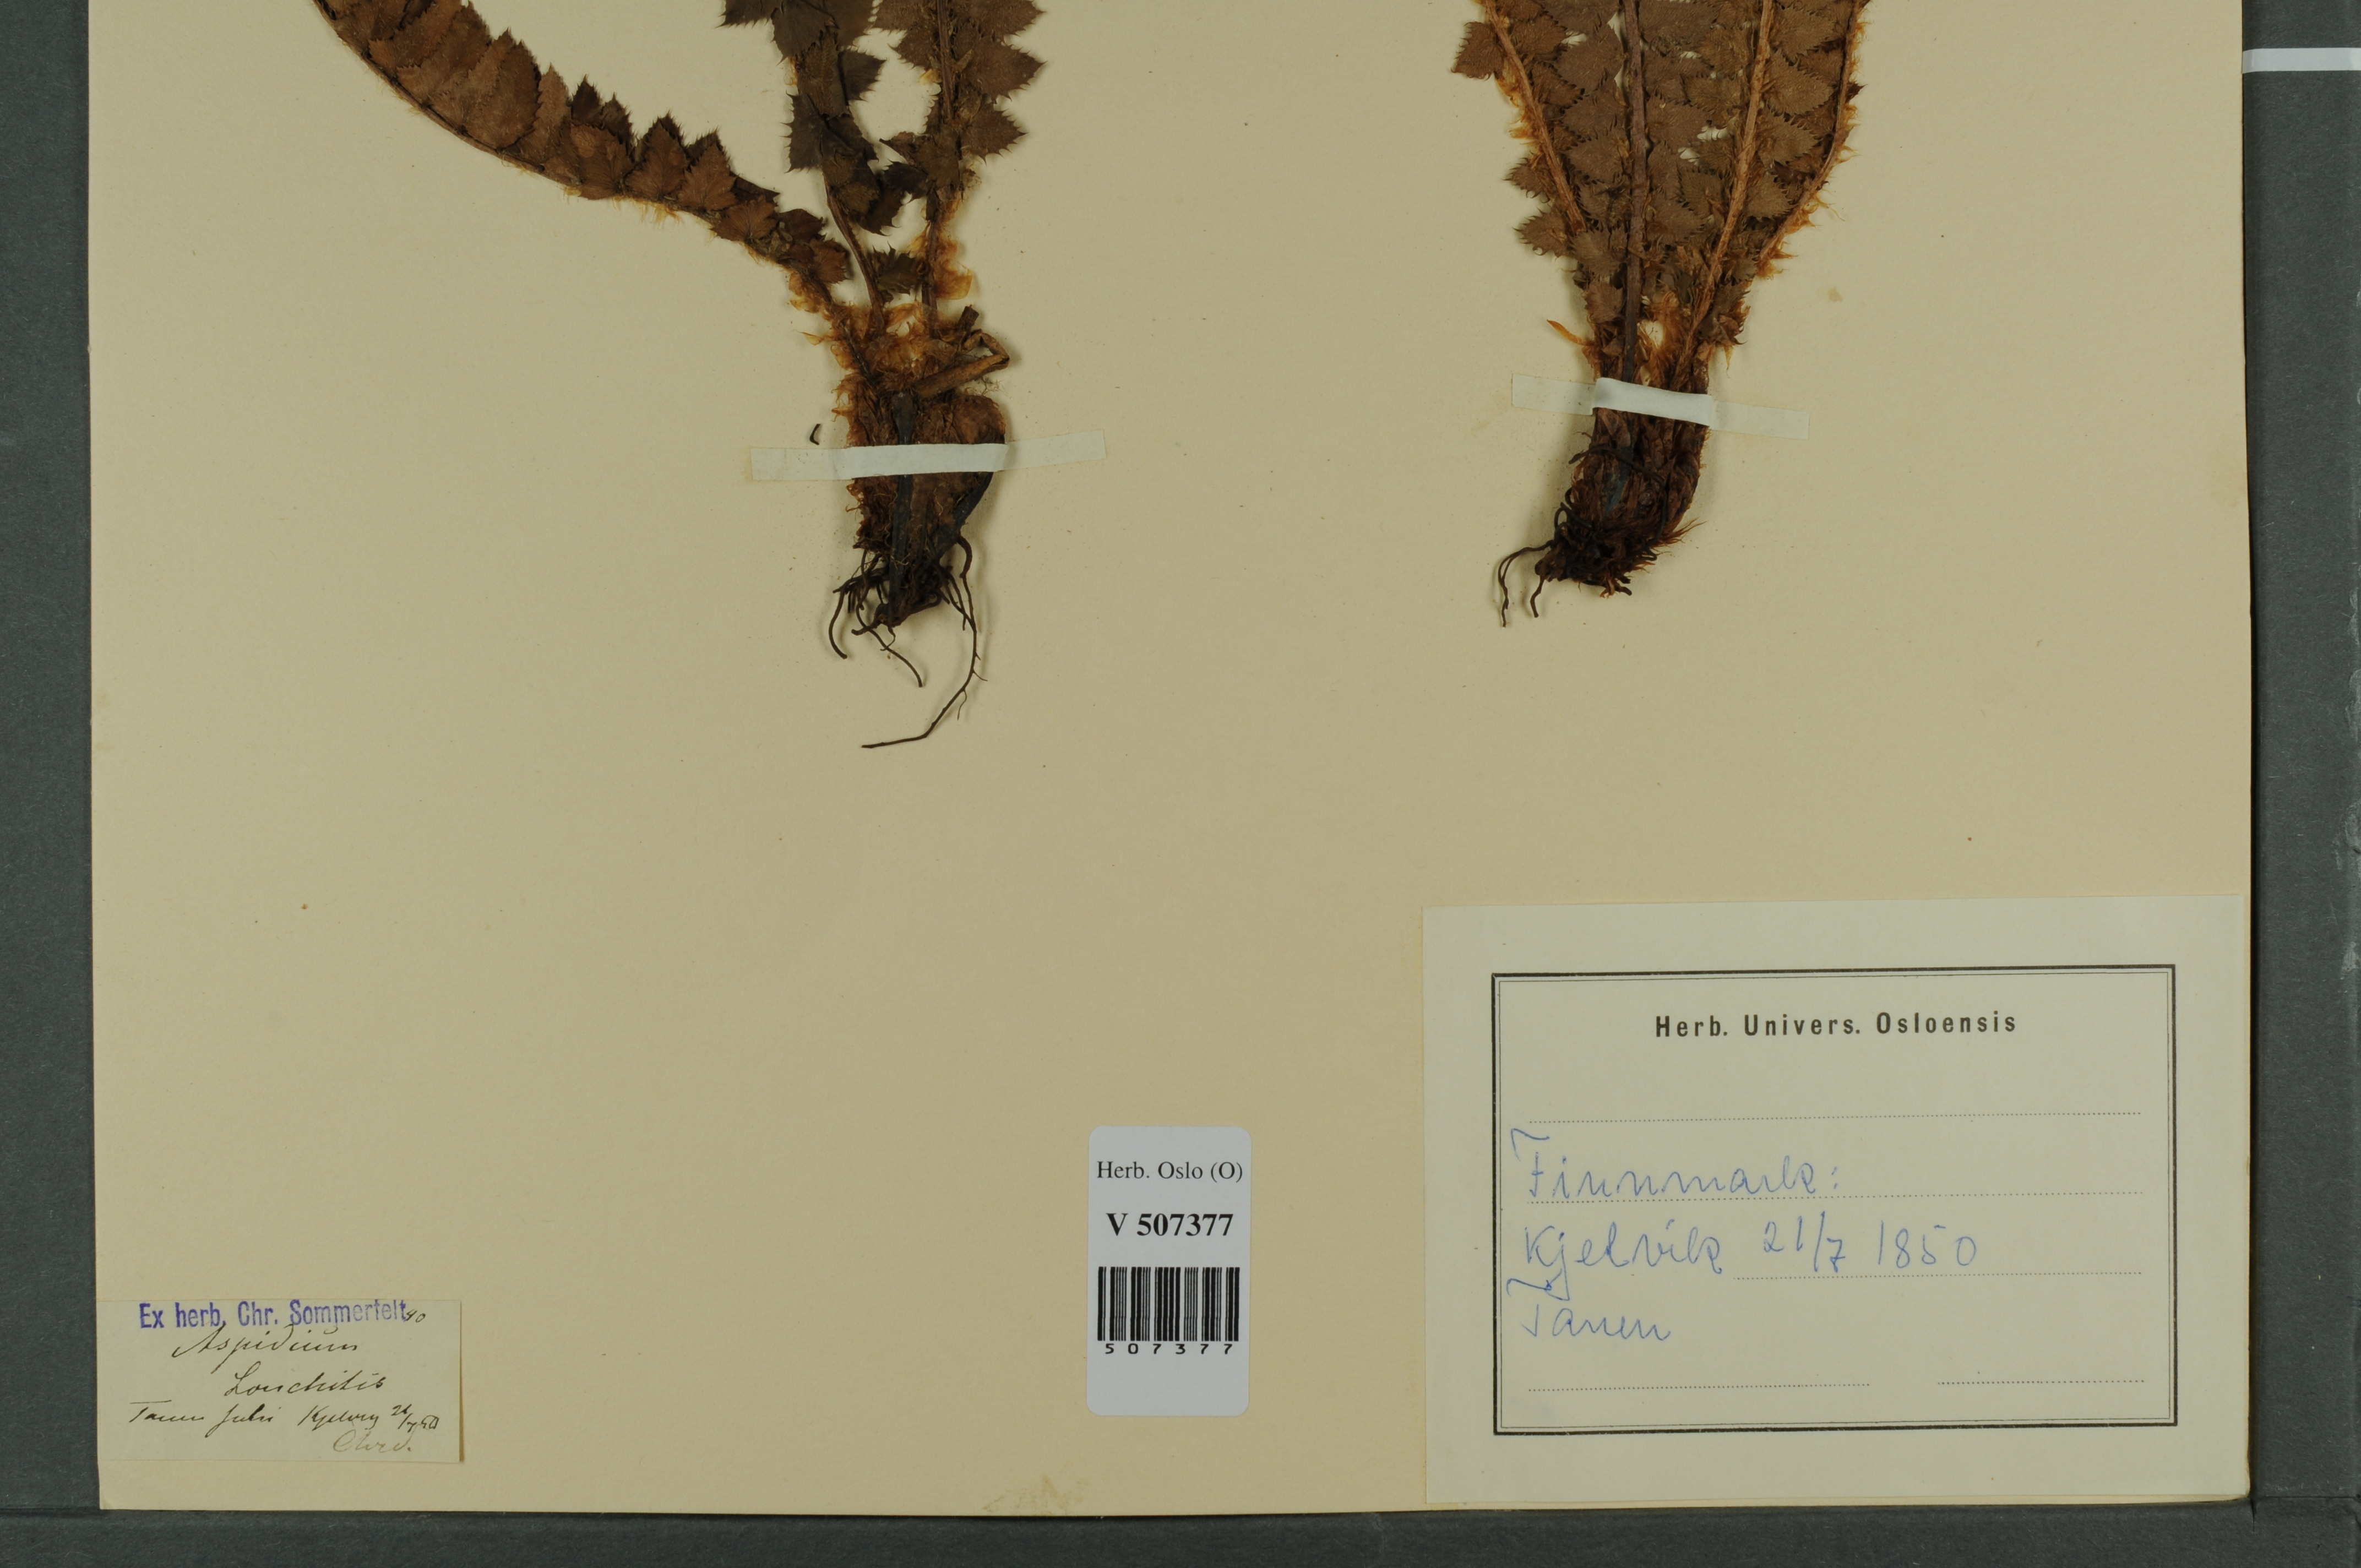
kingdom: Plantae
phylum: Tracheophyta
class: Polypodiopsida
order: Polypodiales
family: Dryopteridaceae
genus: Polystichum
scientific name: Polystichum lonchitis
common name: Holly fern
